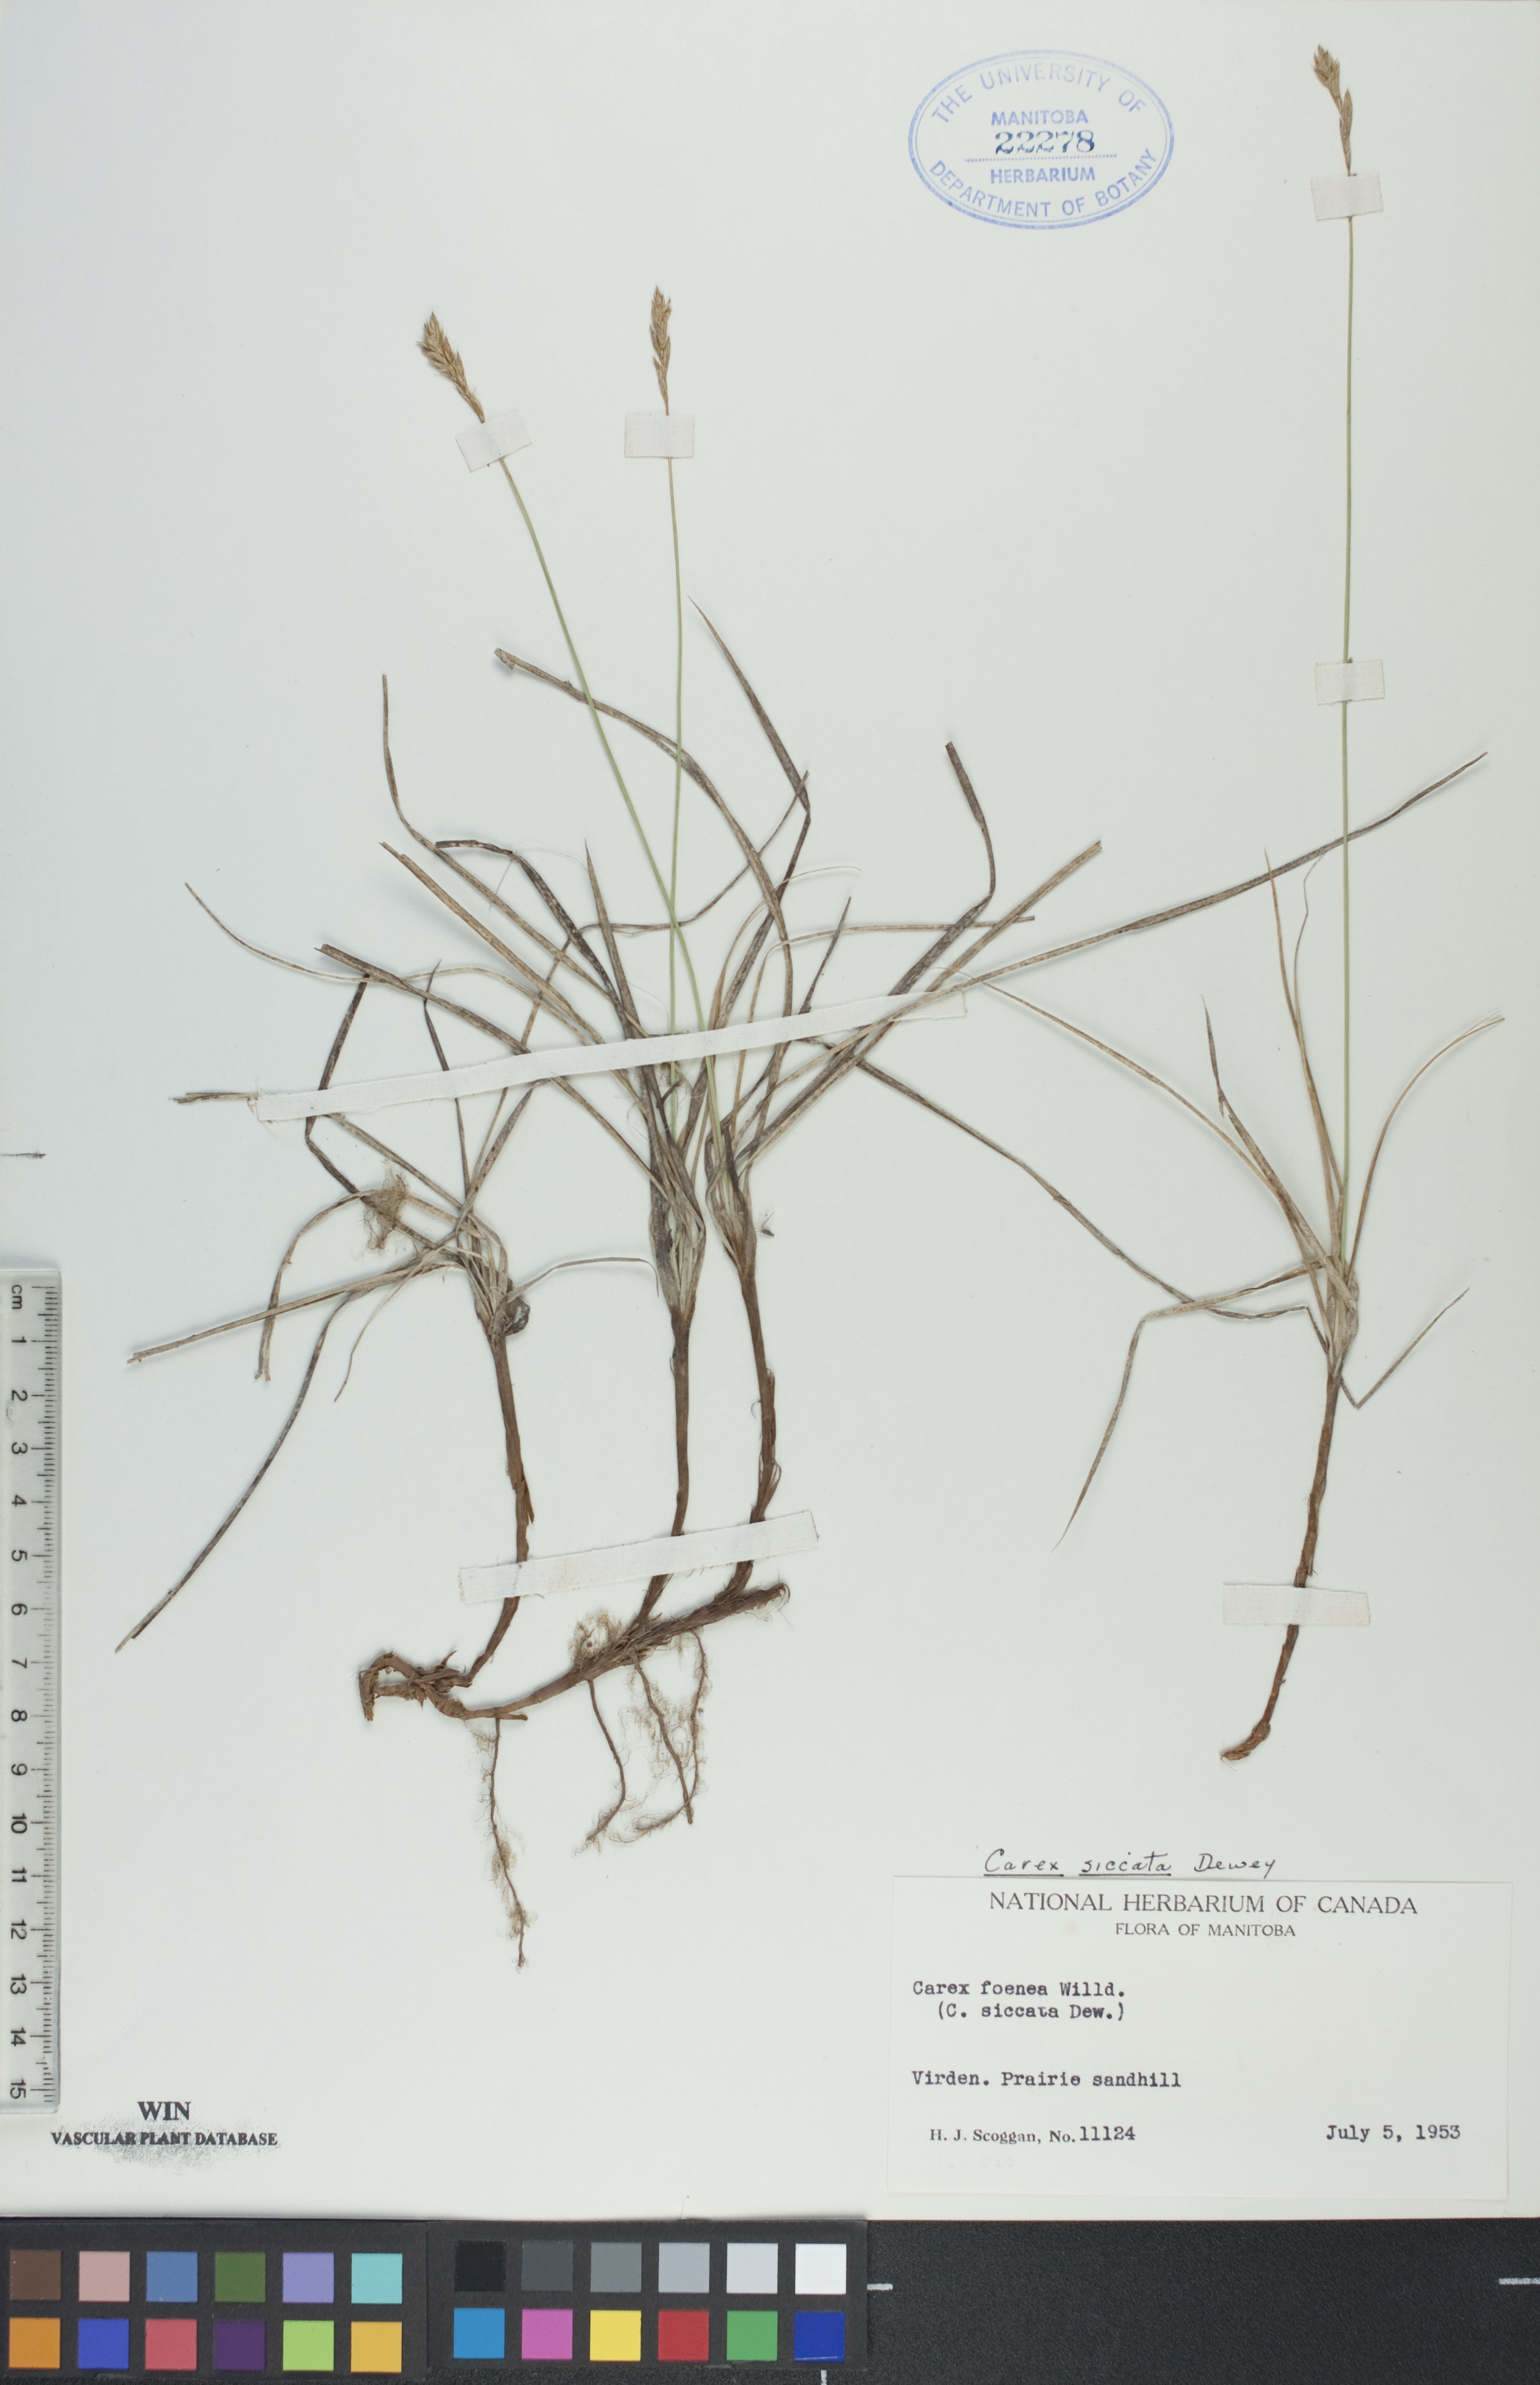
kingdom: Plantae
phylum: Tracheophyta
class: Liliopsida
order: Poales
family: Cyperaceae
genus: Carex
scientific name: Carex siccata
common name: Dry sedge
